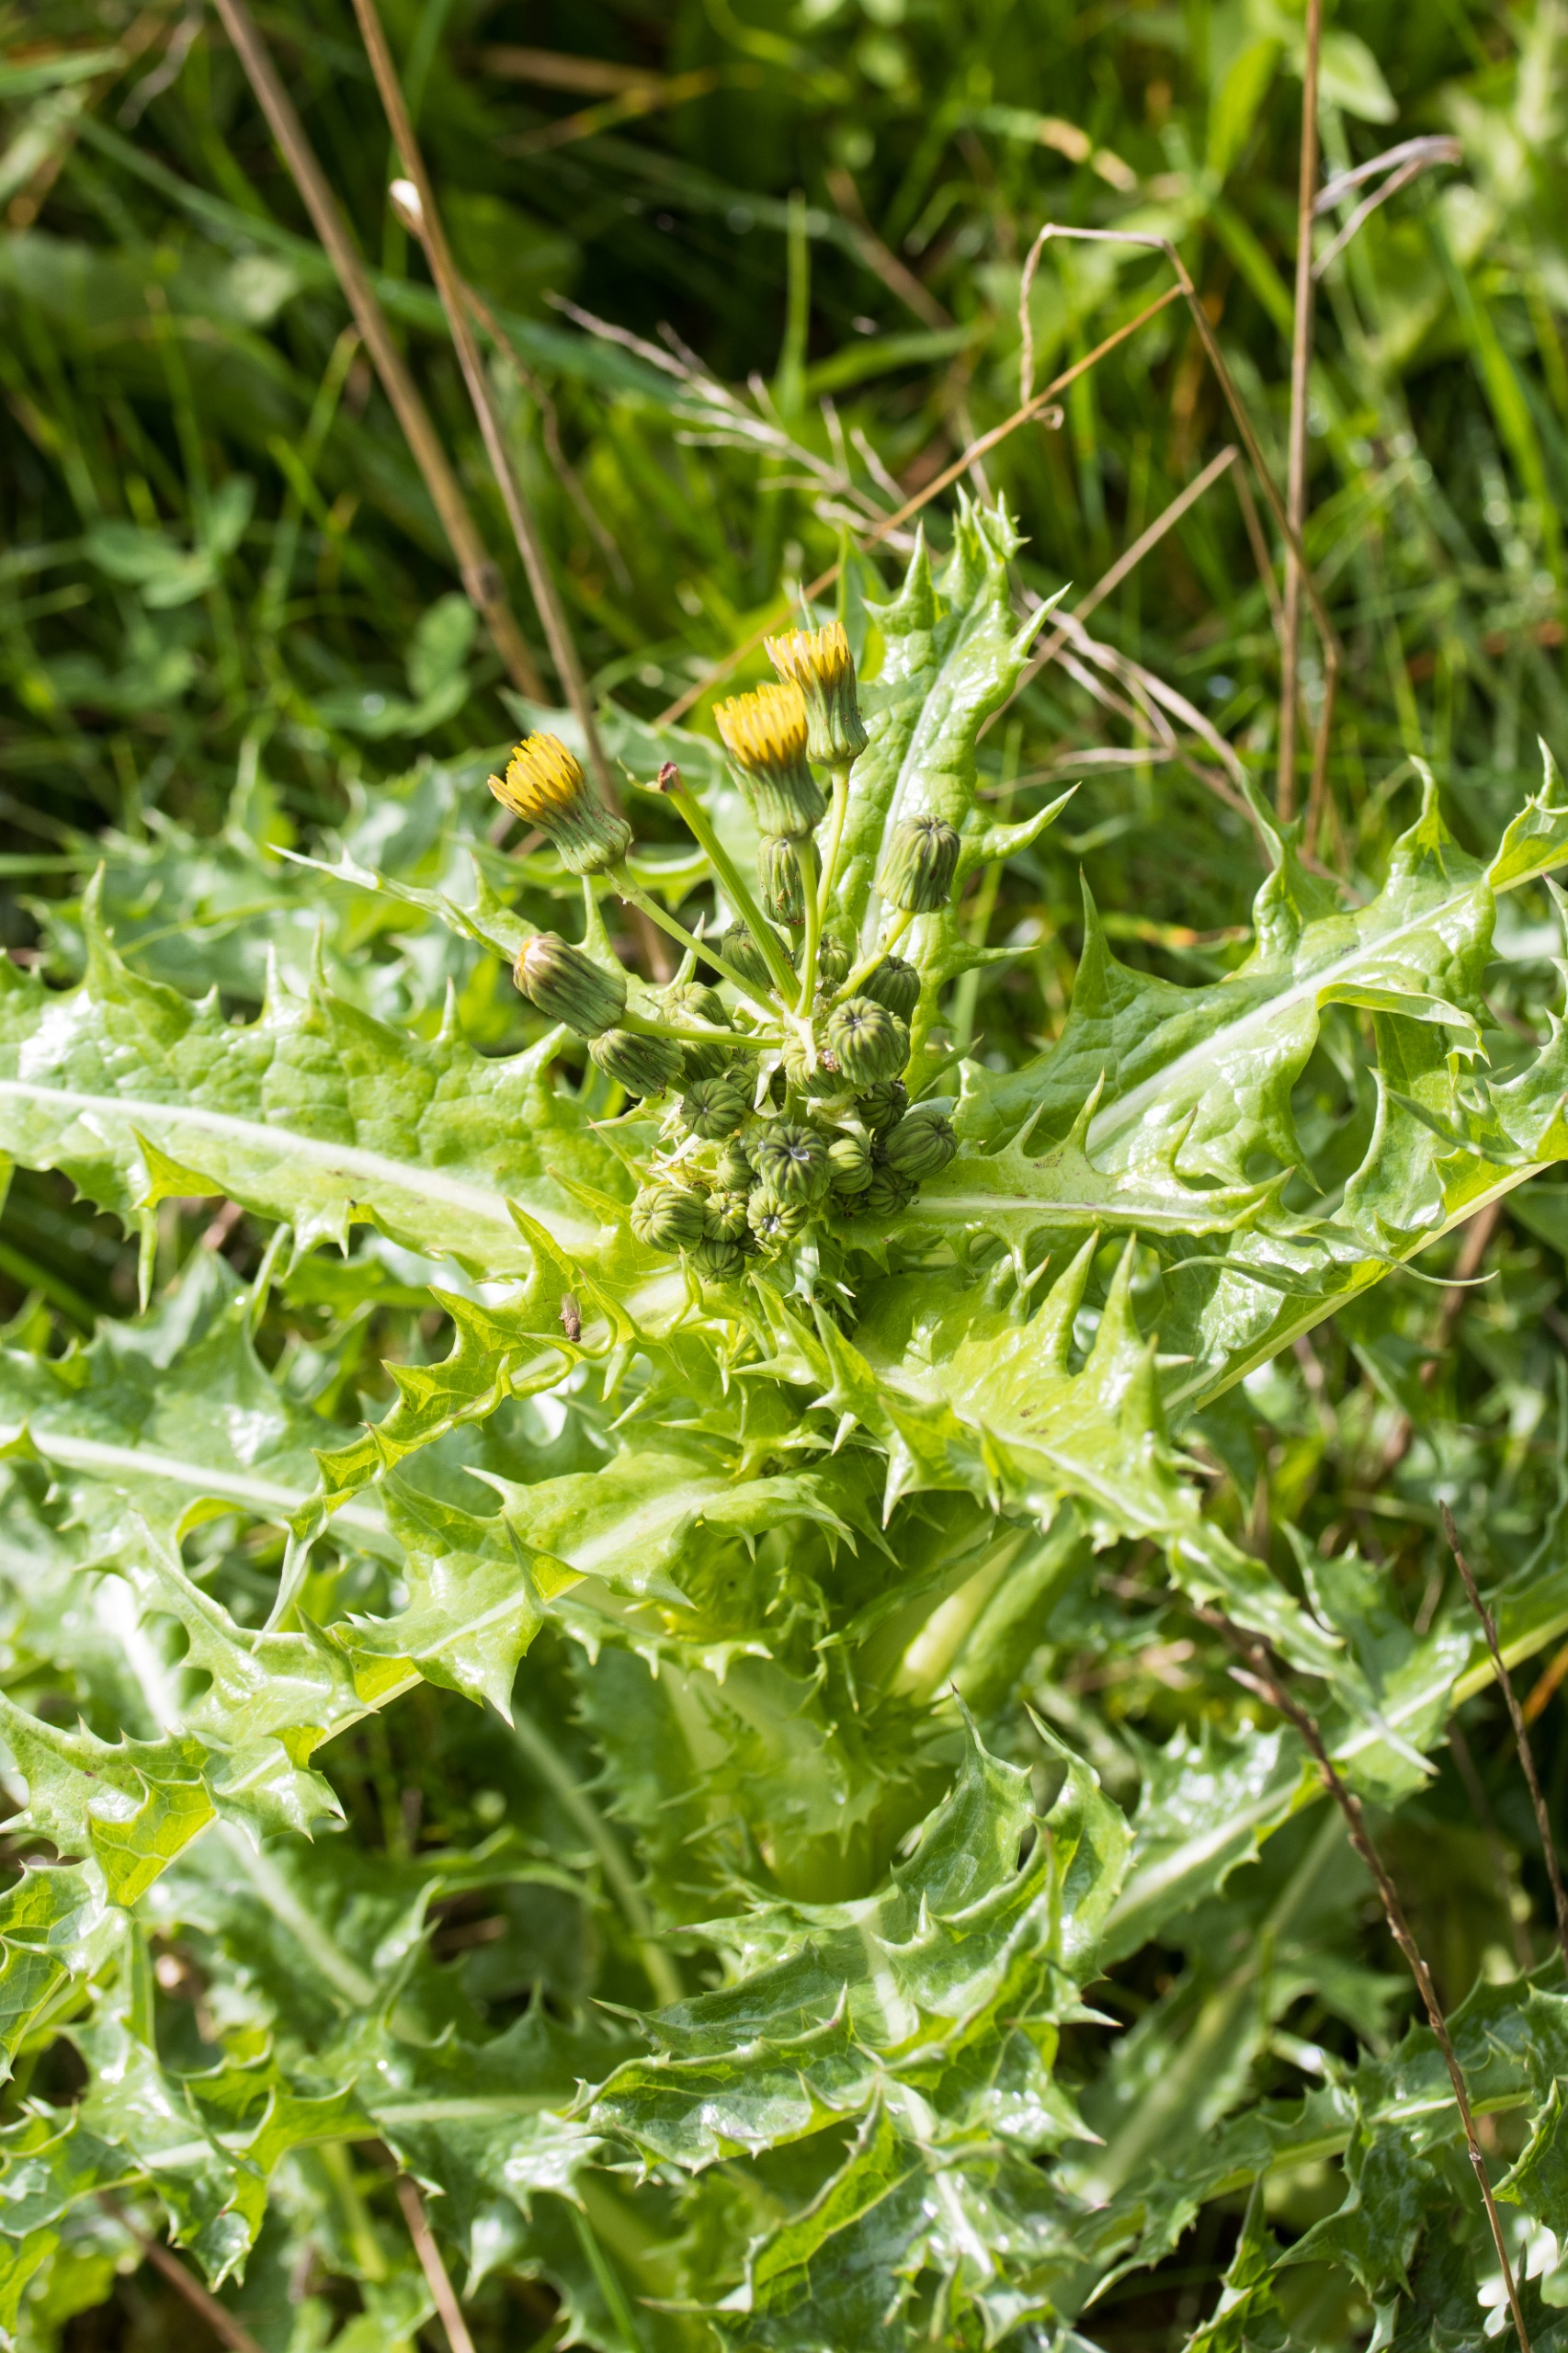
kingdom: Plantae
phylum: Tracheophyta
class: Magnoliopsida
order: Asterales
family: Asteraceae
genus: Sonchus
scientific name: Sonchus asper
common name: Ru svinemælk
